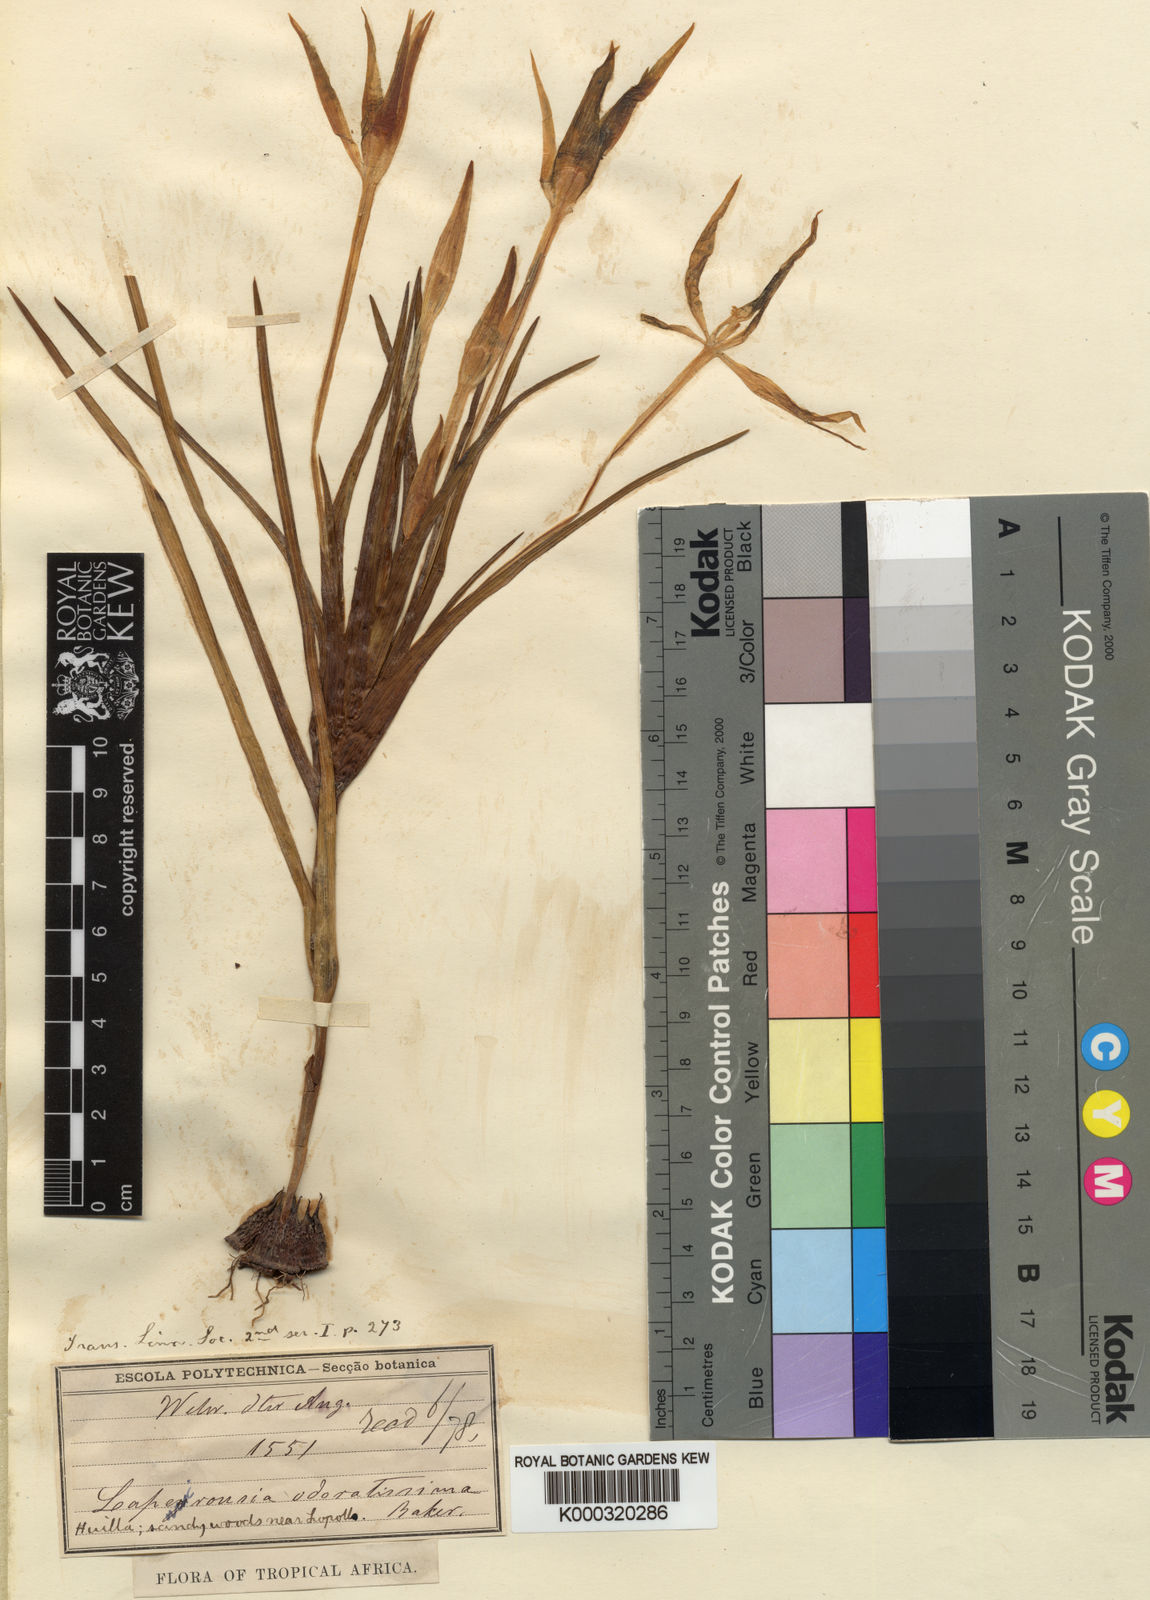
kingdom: Plantae
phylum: Tracheophyta
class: Liliopsida
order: Asparagales
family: Iridaceae
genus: Lapeirousia
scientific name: Lapeirousia odoratissima
